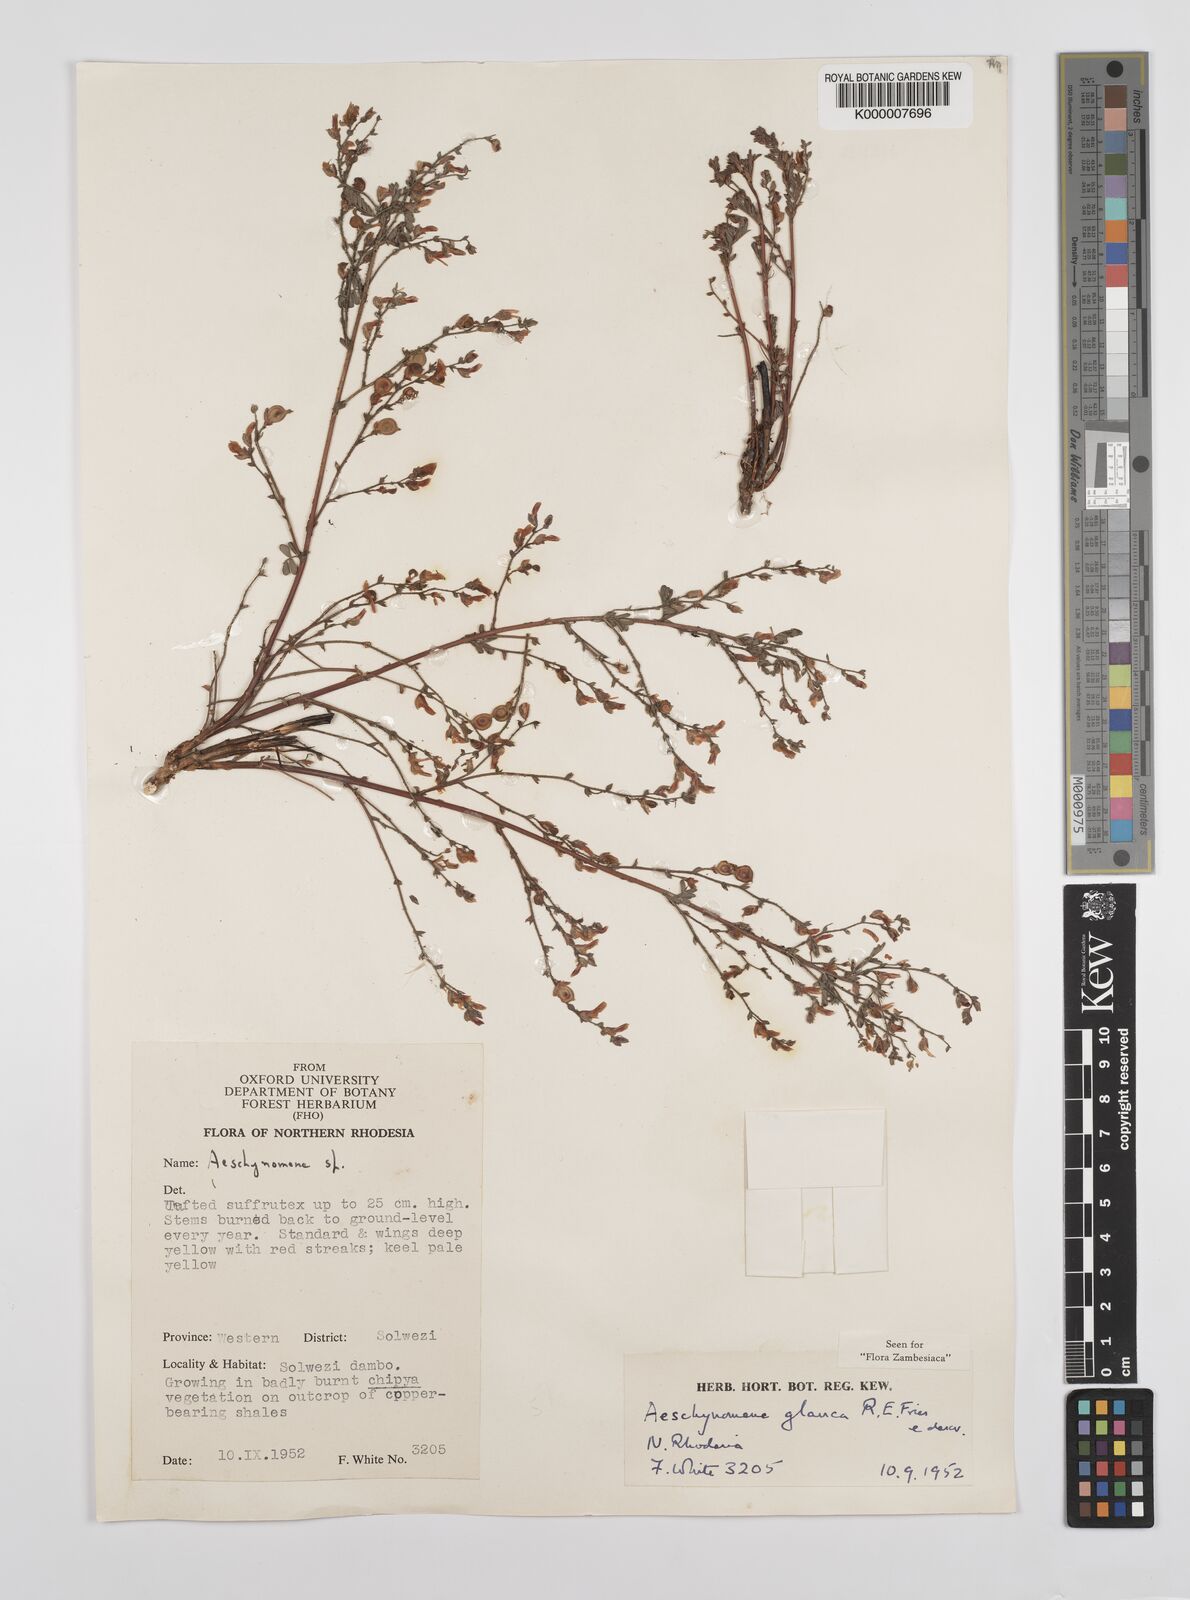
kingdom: Plantae
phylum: Tracheophyta
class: Magnoliopsida
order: Fabales
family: Fabaceae
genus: Aeschynomene
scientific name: Aeschynomene glauca
